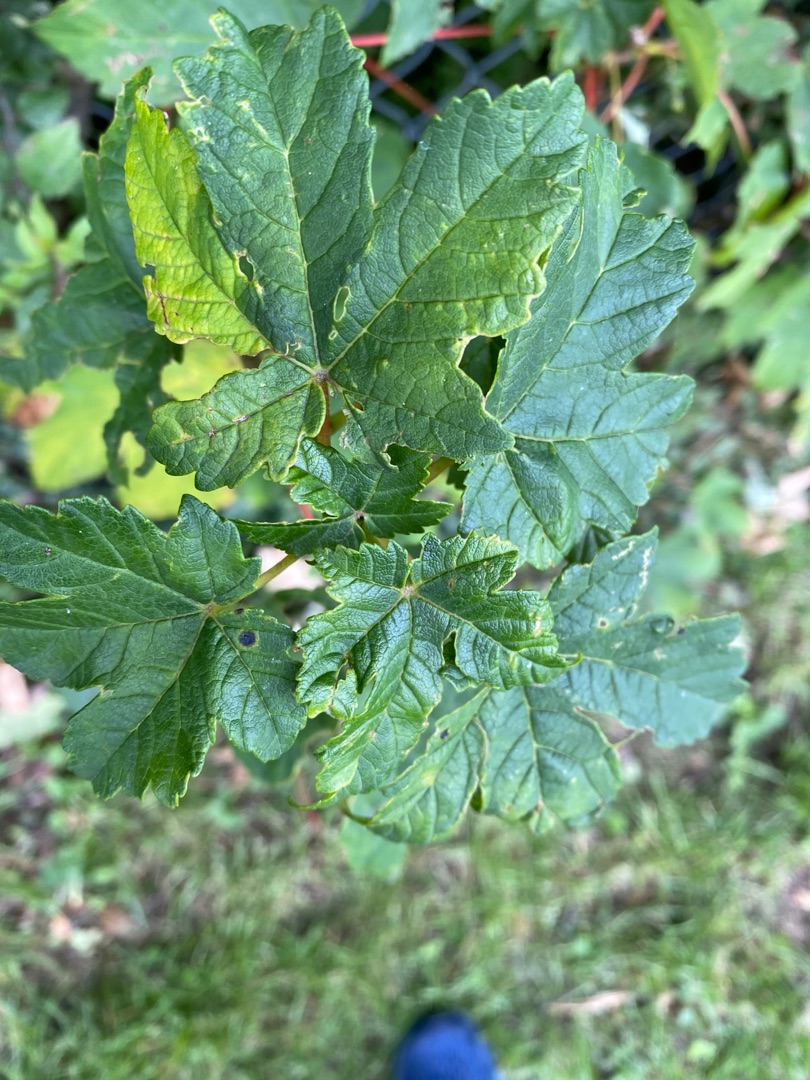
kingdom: Plantae
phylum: Tracheophyta
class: Magnoliopsida
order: Sapindales
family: Sapindaceae
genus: Acer
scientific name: Acer pseudoplatanus
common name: Ahorn
